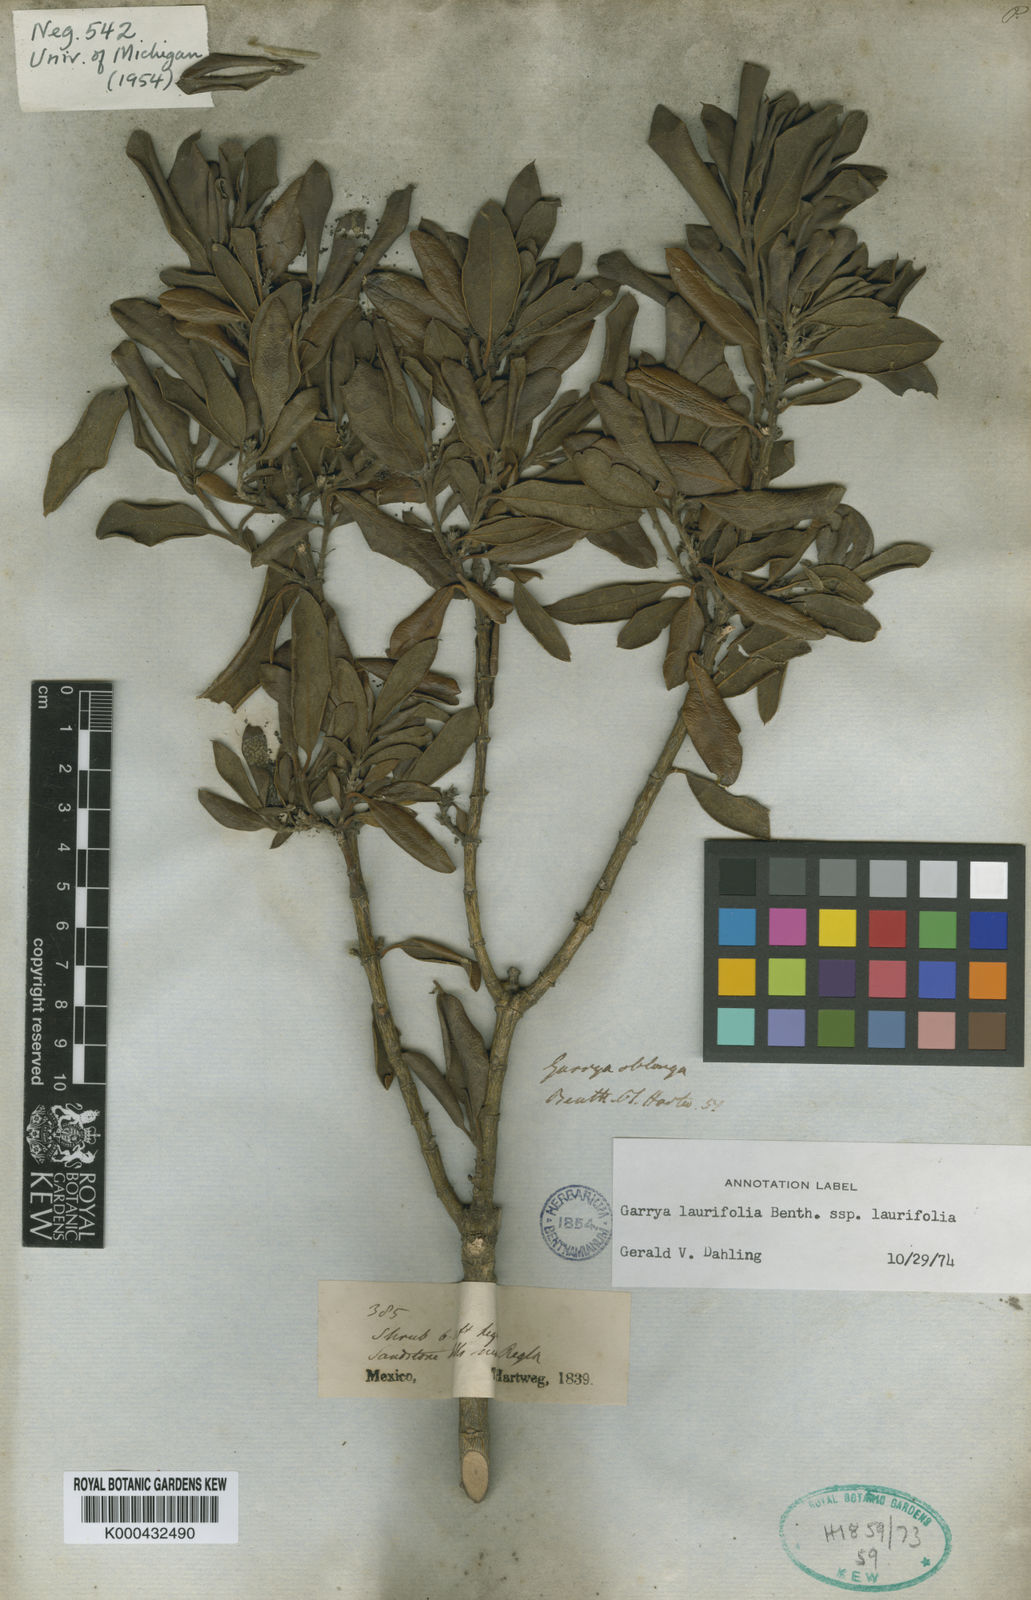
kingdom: Plantae
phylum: Tracheophyta
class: Magnoliopsida
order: Garryales
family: Garryaceae
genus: Garrya
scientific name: Garrya laurifolia
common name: Cuachichic
